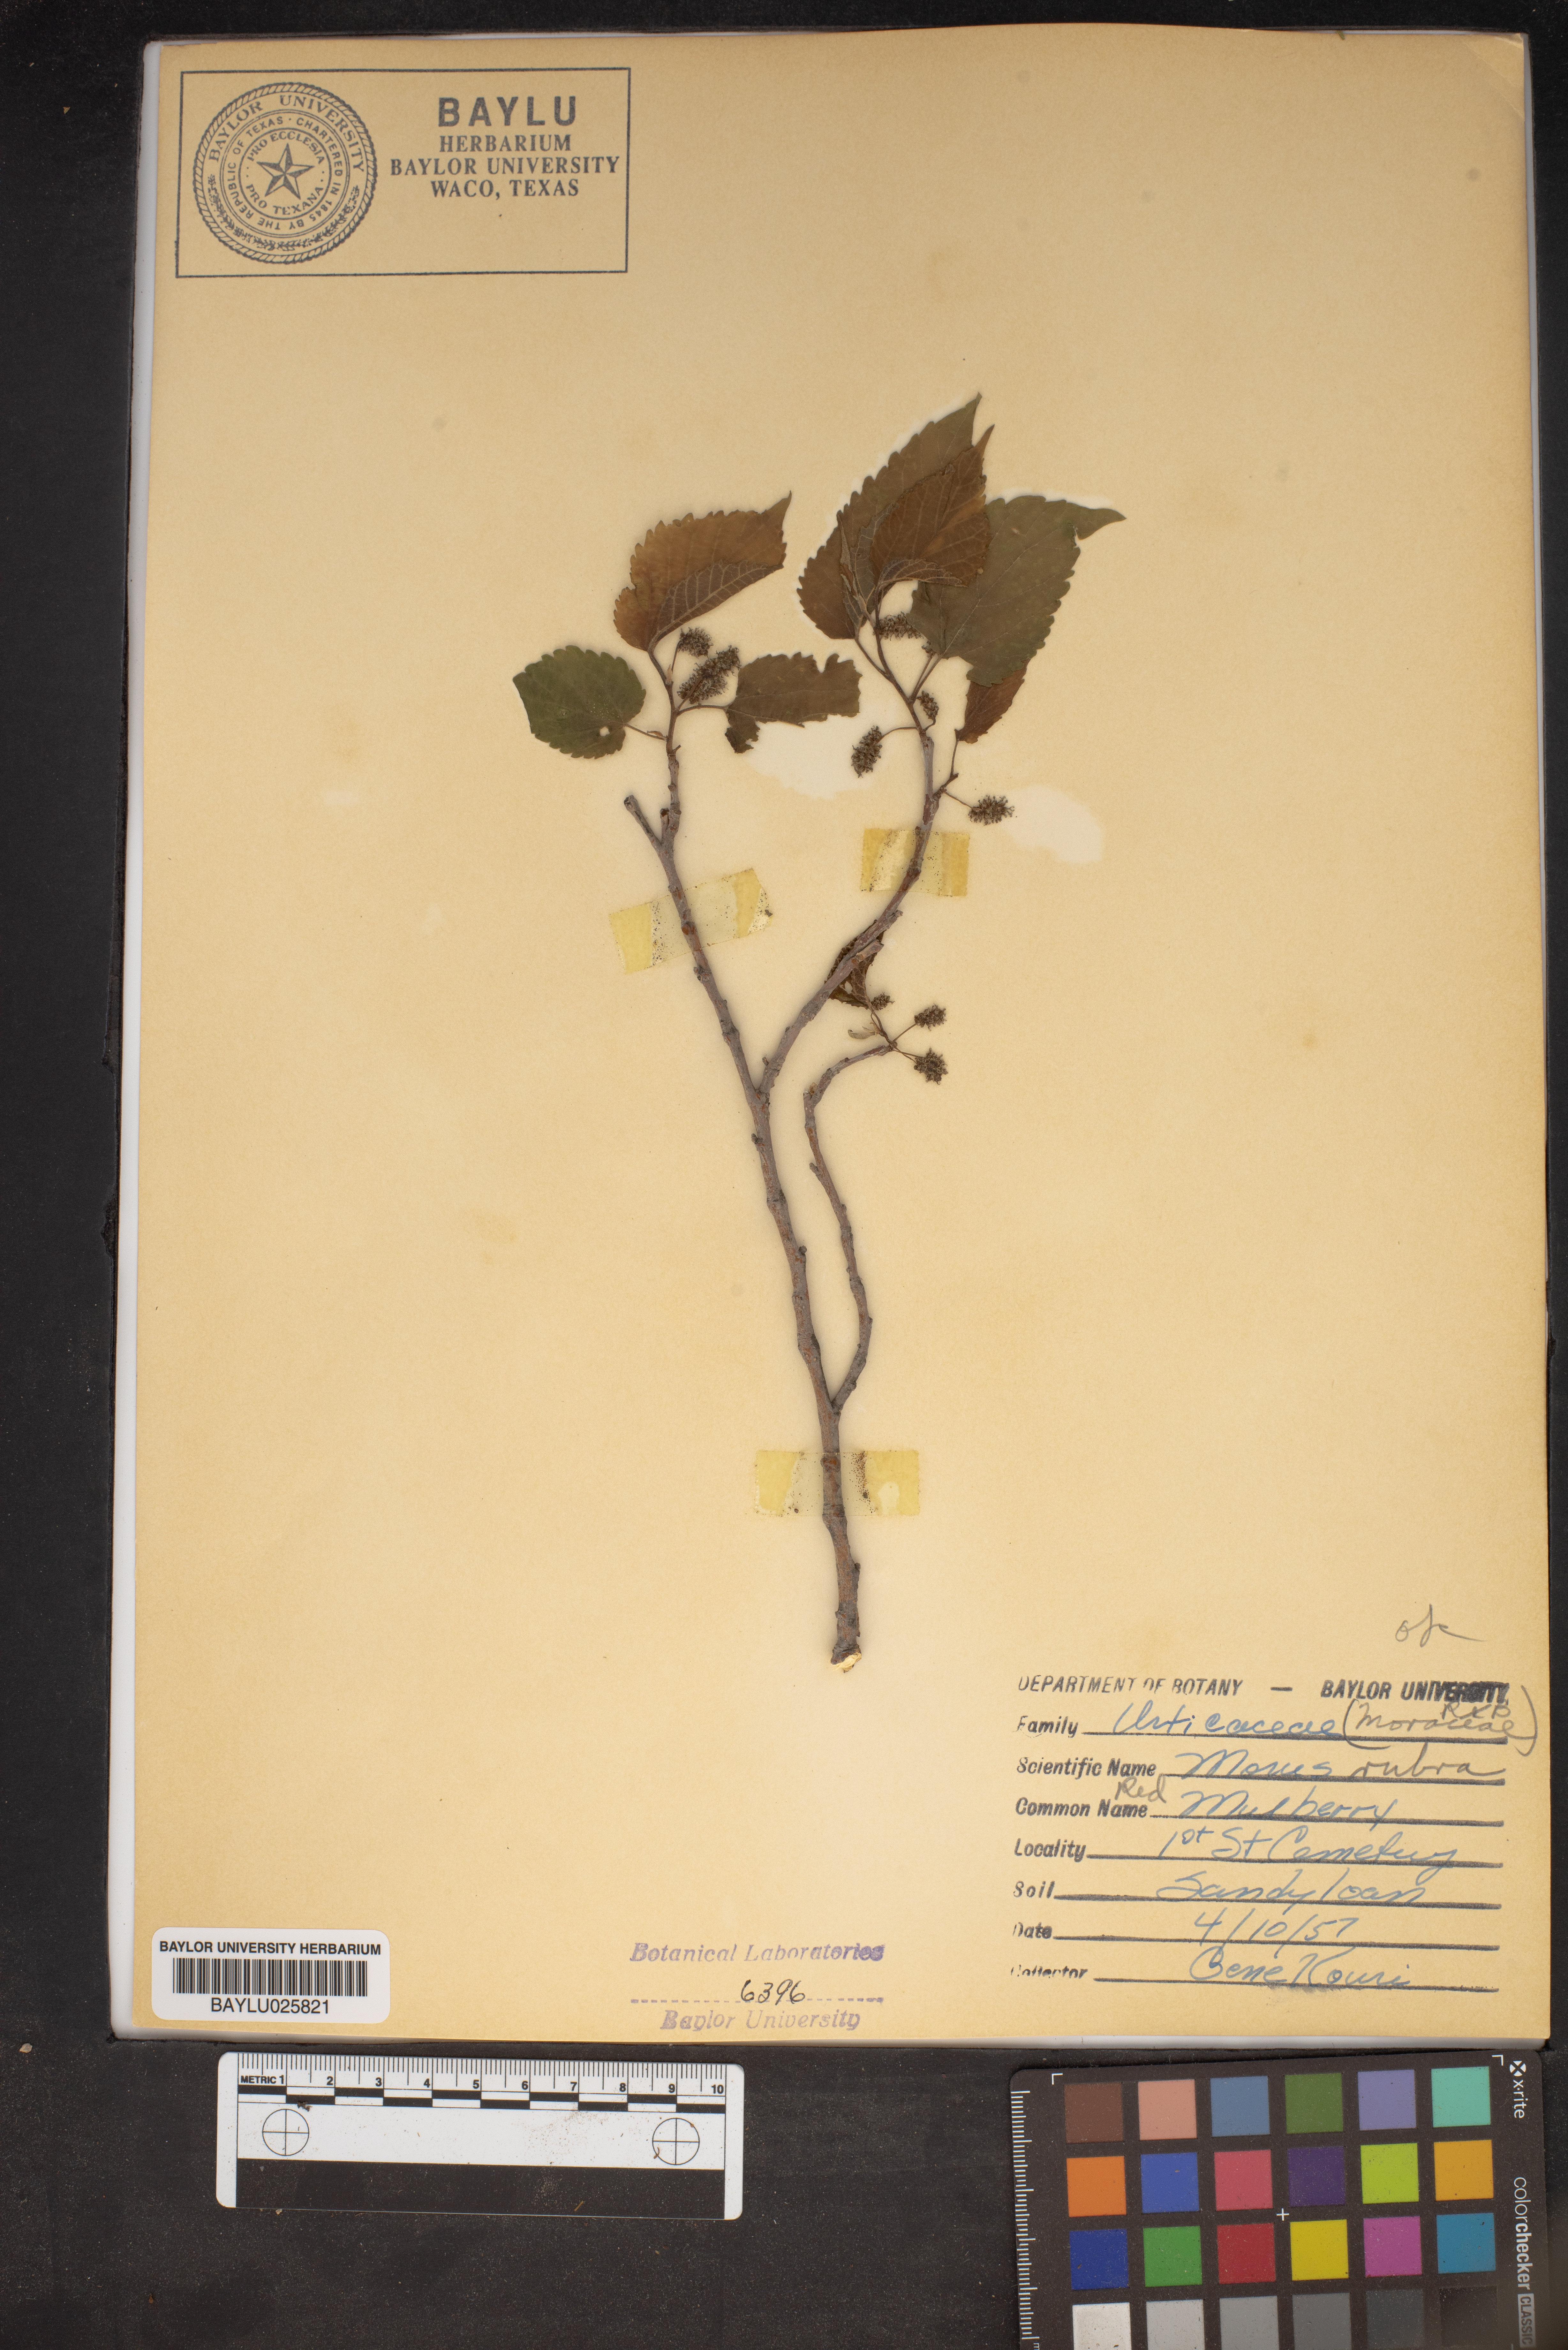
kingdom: Plantae
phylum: Tracheophyta
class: Magnoliopsida
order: Rosales
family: Moraceae
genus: Morus
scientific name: Morus rubra
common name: Red mulberry
